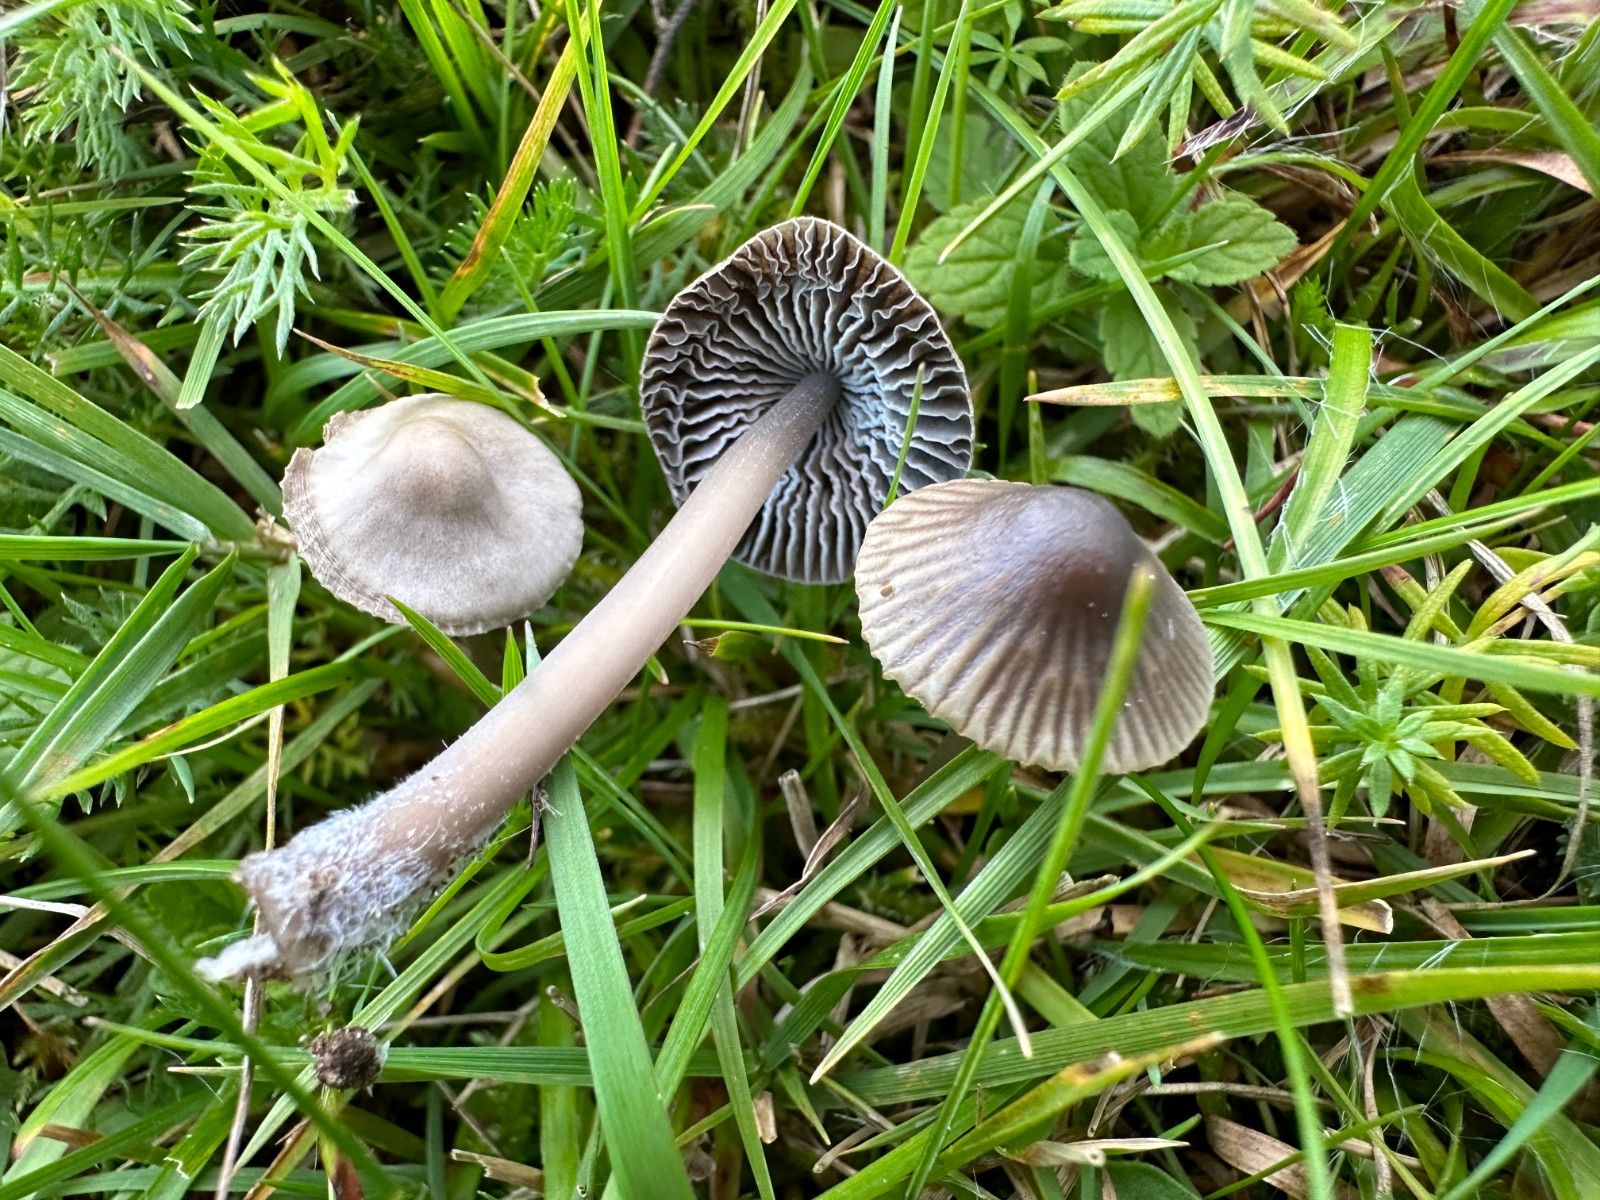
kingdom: Fungi
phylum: Basidiomycota
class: Agaricomycetes
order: Agaricales
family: Mycenaceae
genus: Mycena
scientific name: Mycena
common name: huesvamp
